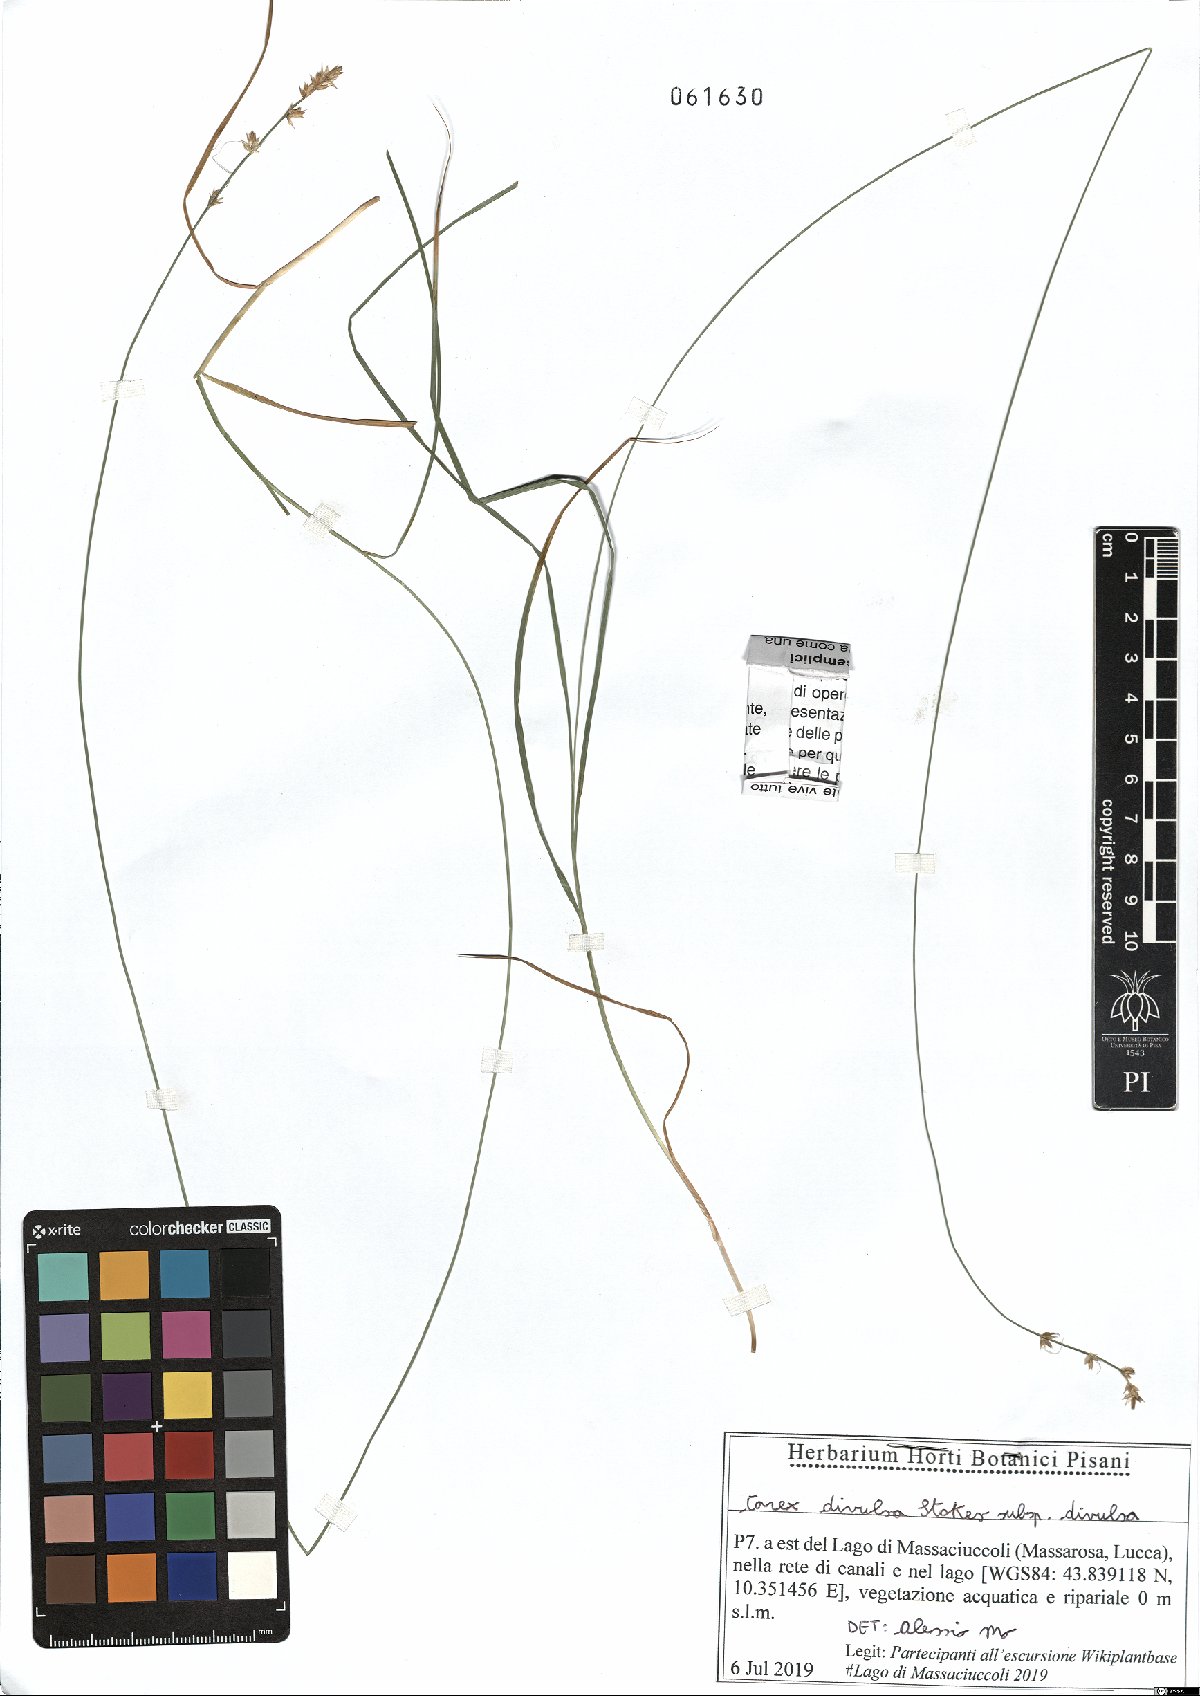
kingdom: Plantae
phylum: Tracheophyta
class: Liliopsida
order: Poales
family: Cyperaceae
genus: Carex
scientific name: Carex divulsa
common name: Grassland sedge
